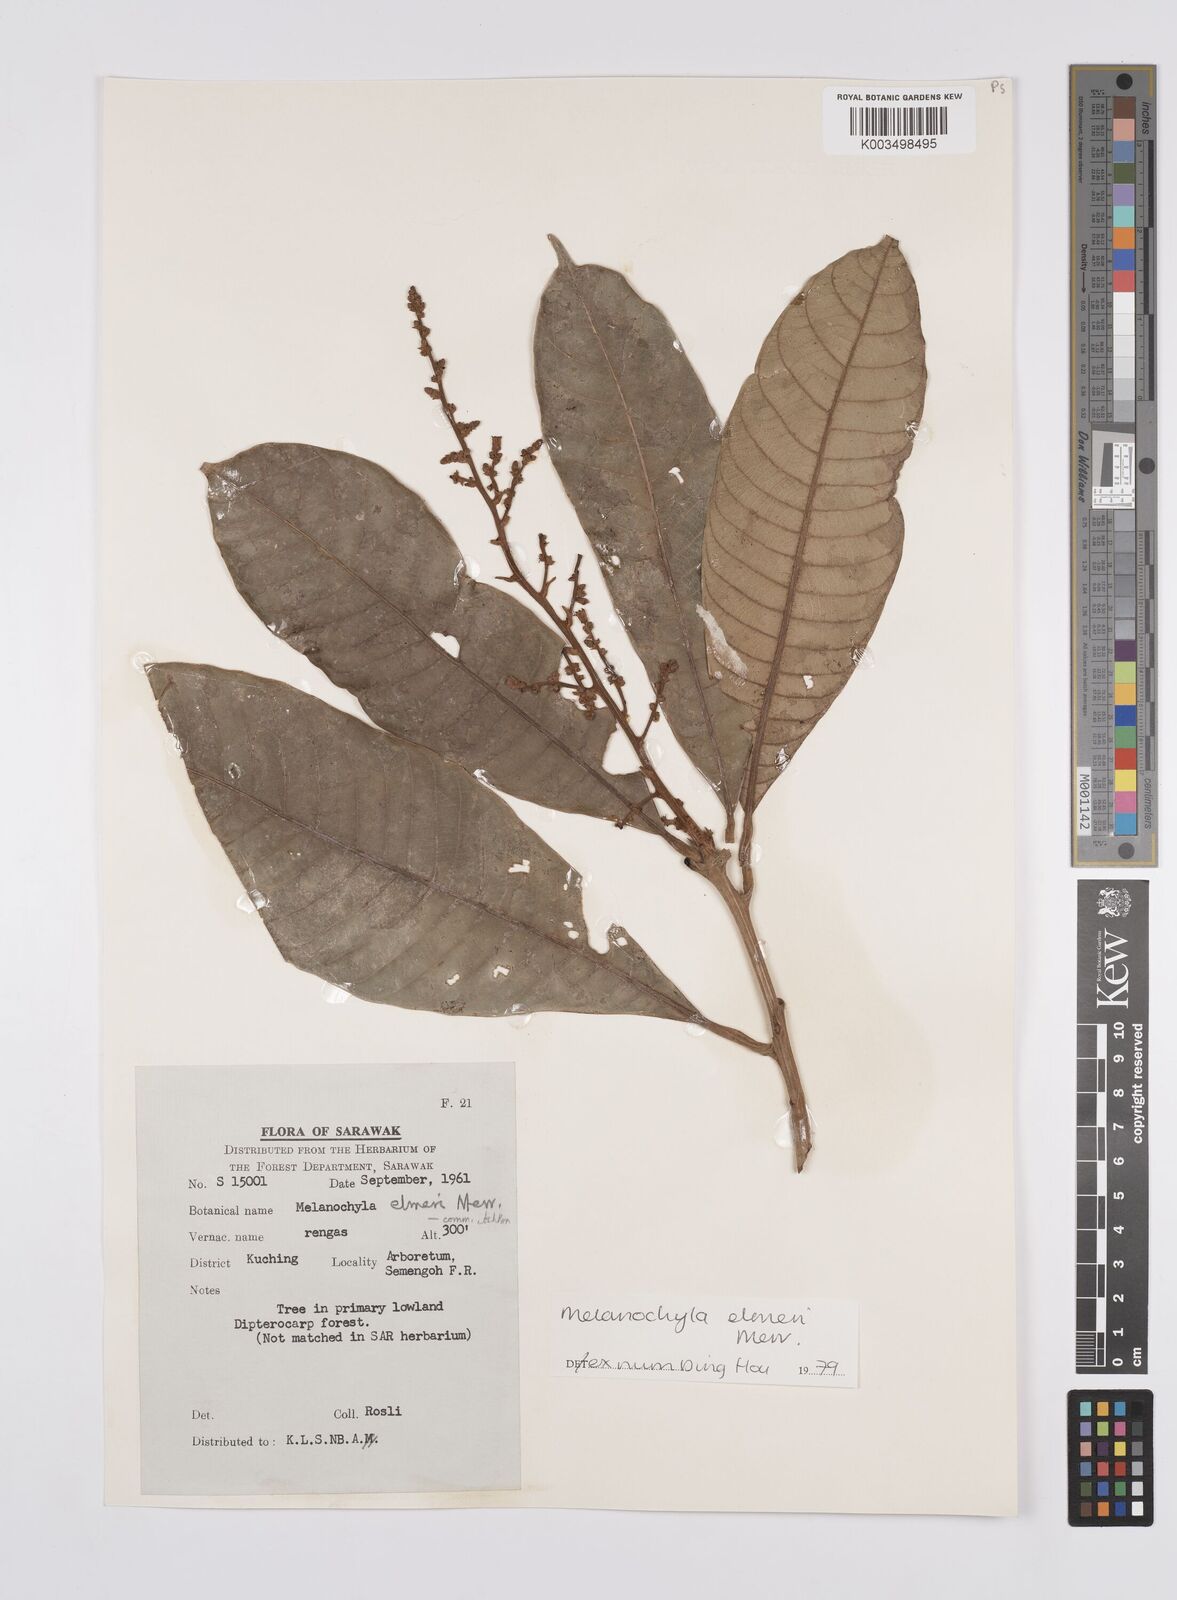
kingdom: Plantae
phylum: Tracheophyta
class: Magnoliopsida
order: Sapindales
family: Anacardiaceae
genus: Melanochyla
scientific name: Melanochyla elmeri
